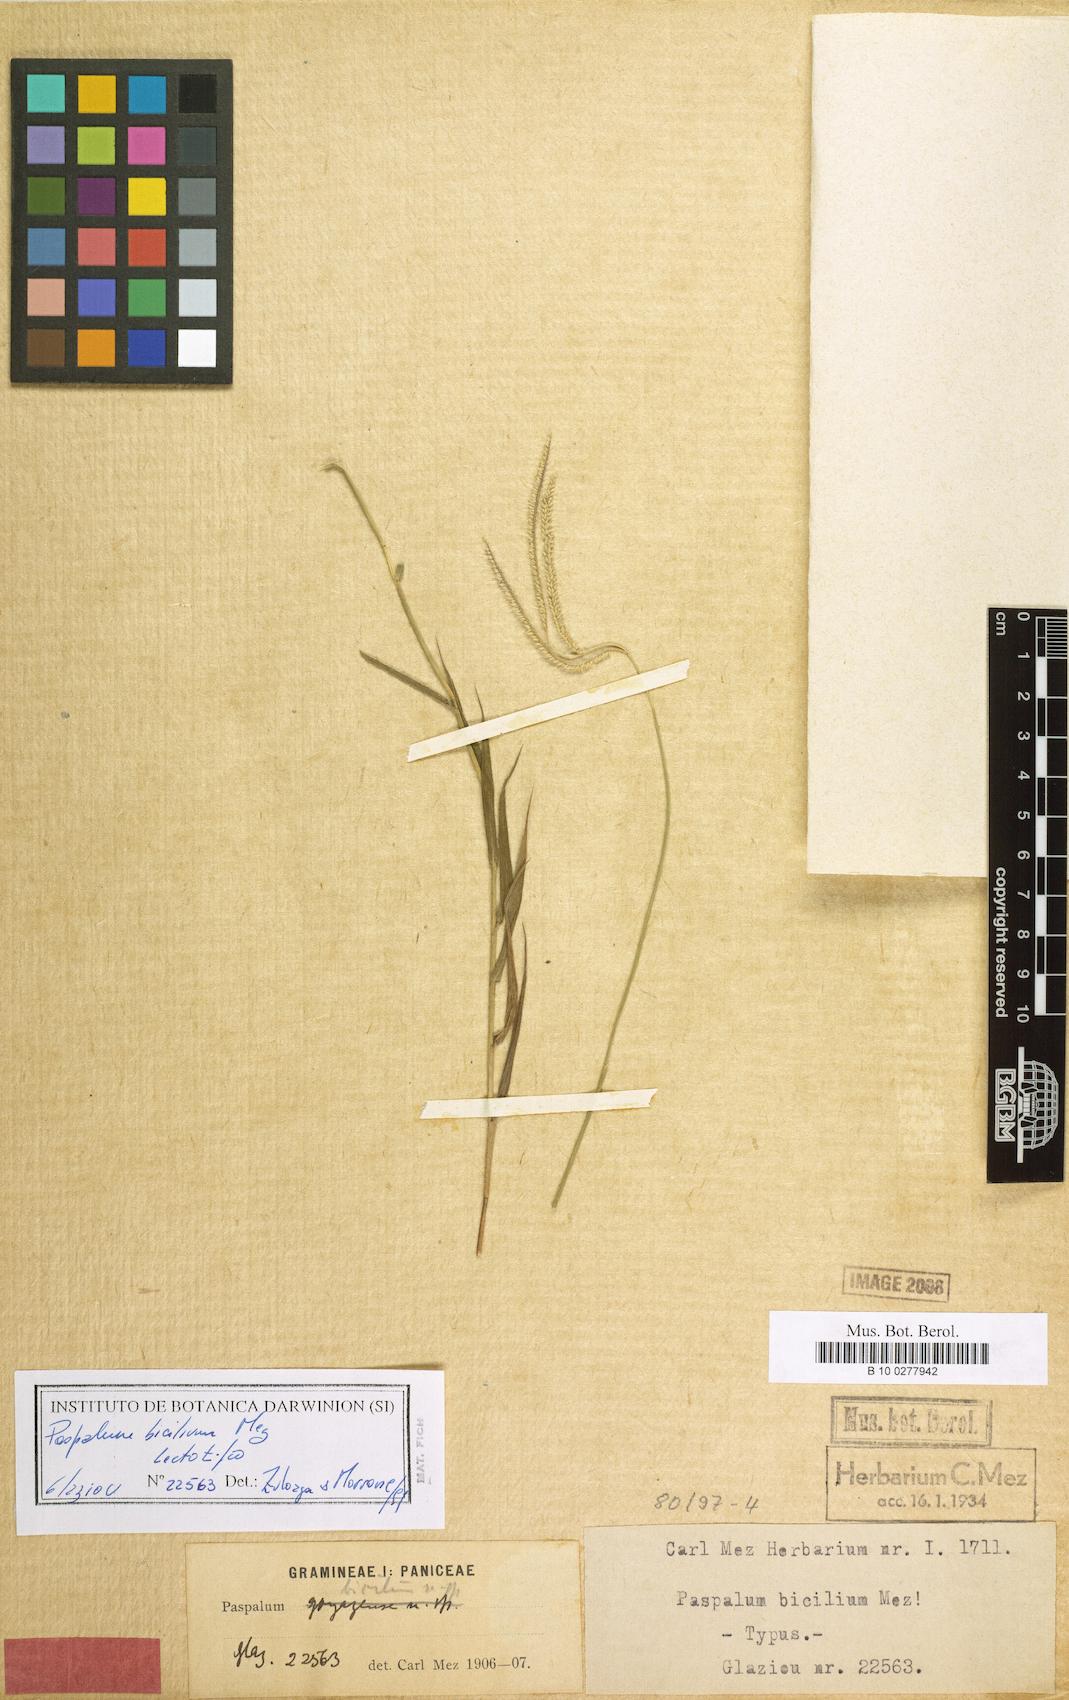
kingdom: Plantae
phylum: Tracheophyta
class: Liliopsida
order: Poales
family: Poaceae
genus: Paspalum
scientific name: Paspalum polyphyllum
